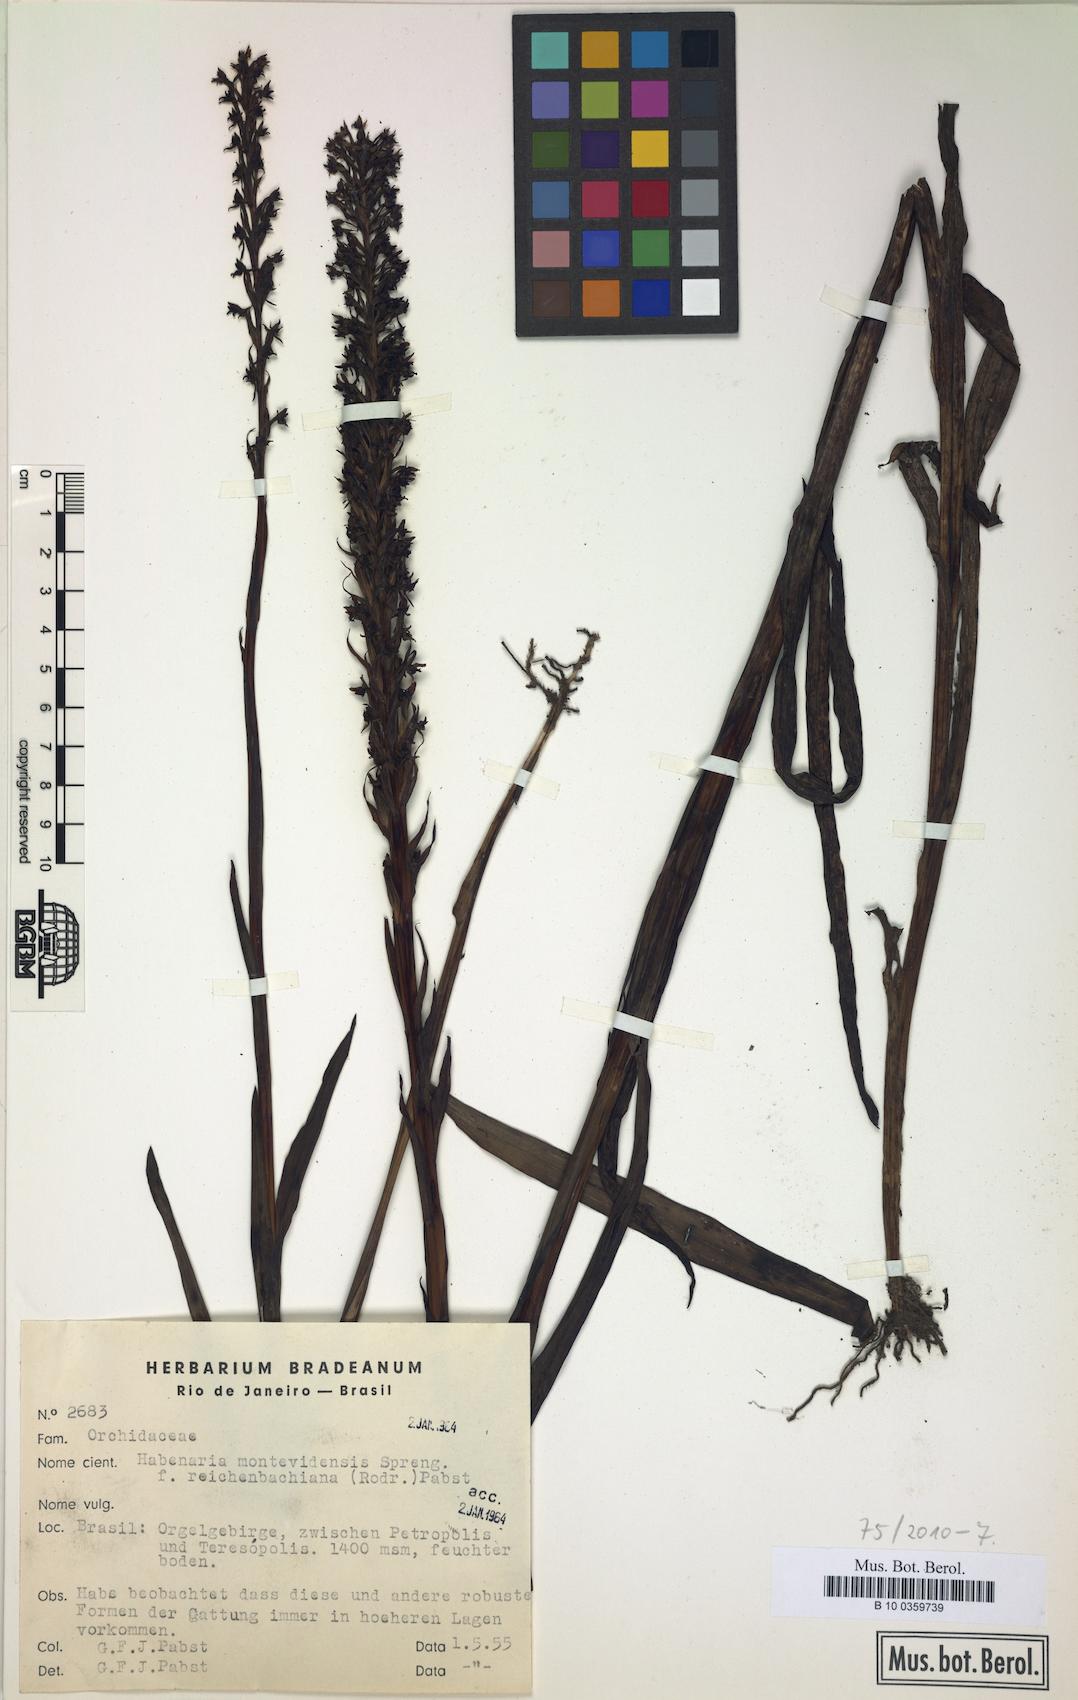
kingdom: Plantae
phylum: Tracheophyta
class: Liliopsida
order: Asparagales
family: Orchidaceae
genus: Habenaria
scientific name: Habenaria parviflora
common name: Small flowered habenaria
